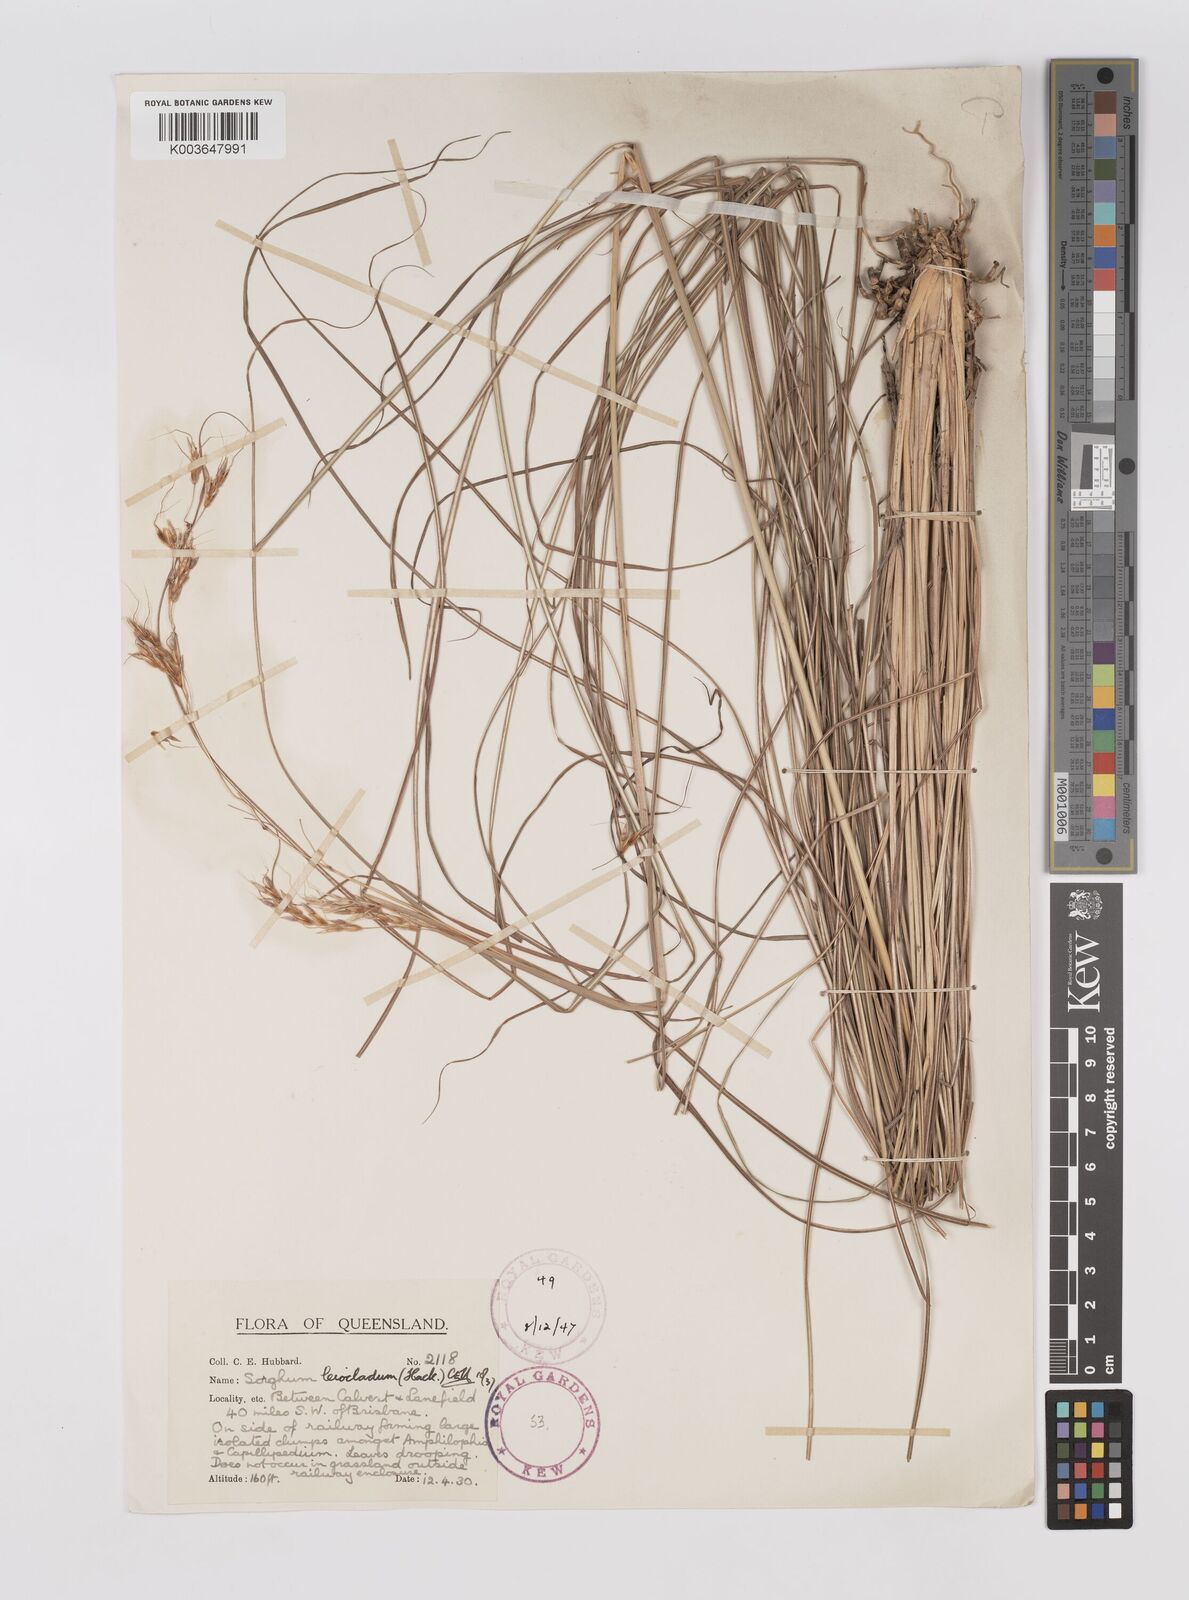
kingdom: Plantae
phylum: Tracheophyta
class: Liliopsida
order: Poales
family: Poaceae
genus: Sarga
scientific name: Sarga leioclada
